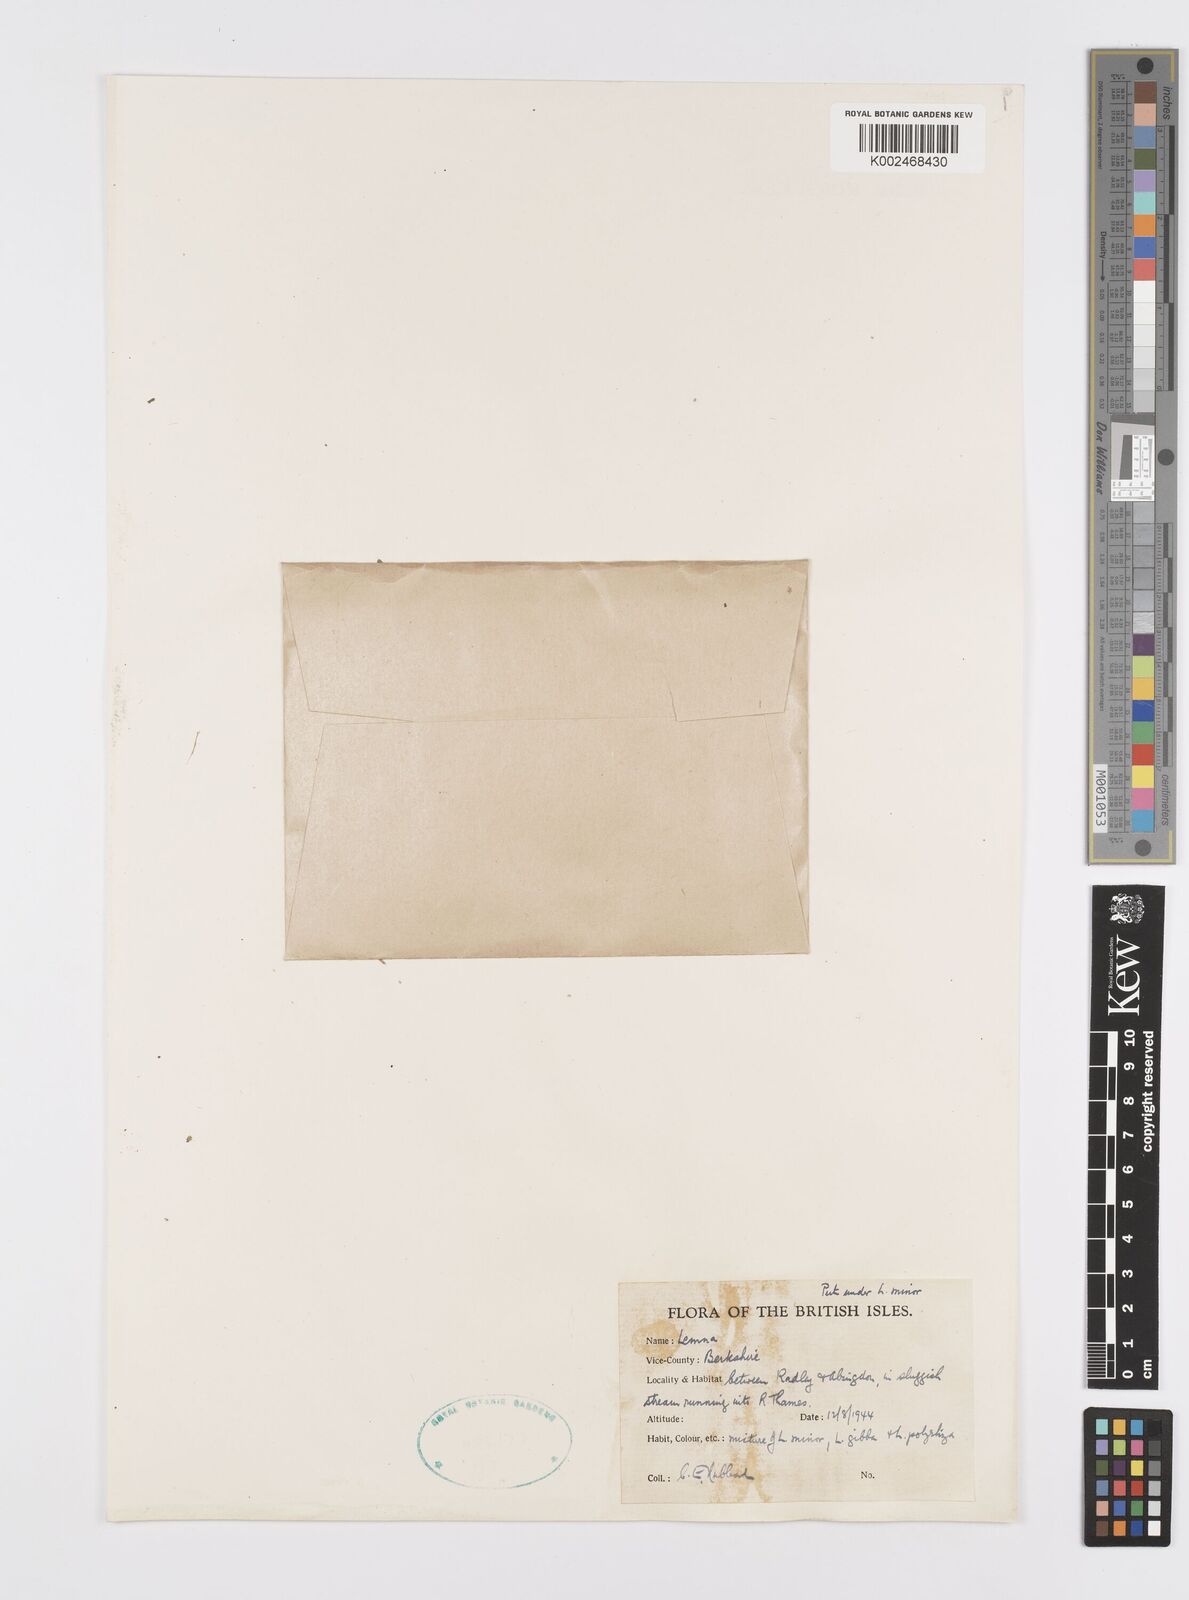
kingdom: Plantae
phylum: Tracheophyta
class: Liliopsida
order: Alismatales
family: Araceae
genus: Wolffia
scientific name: Wolffia
